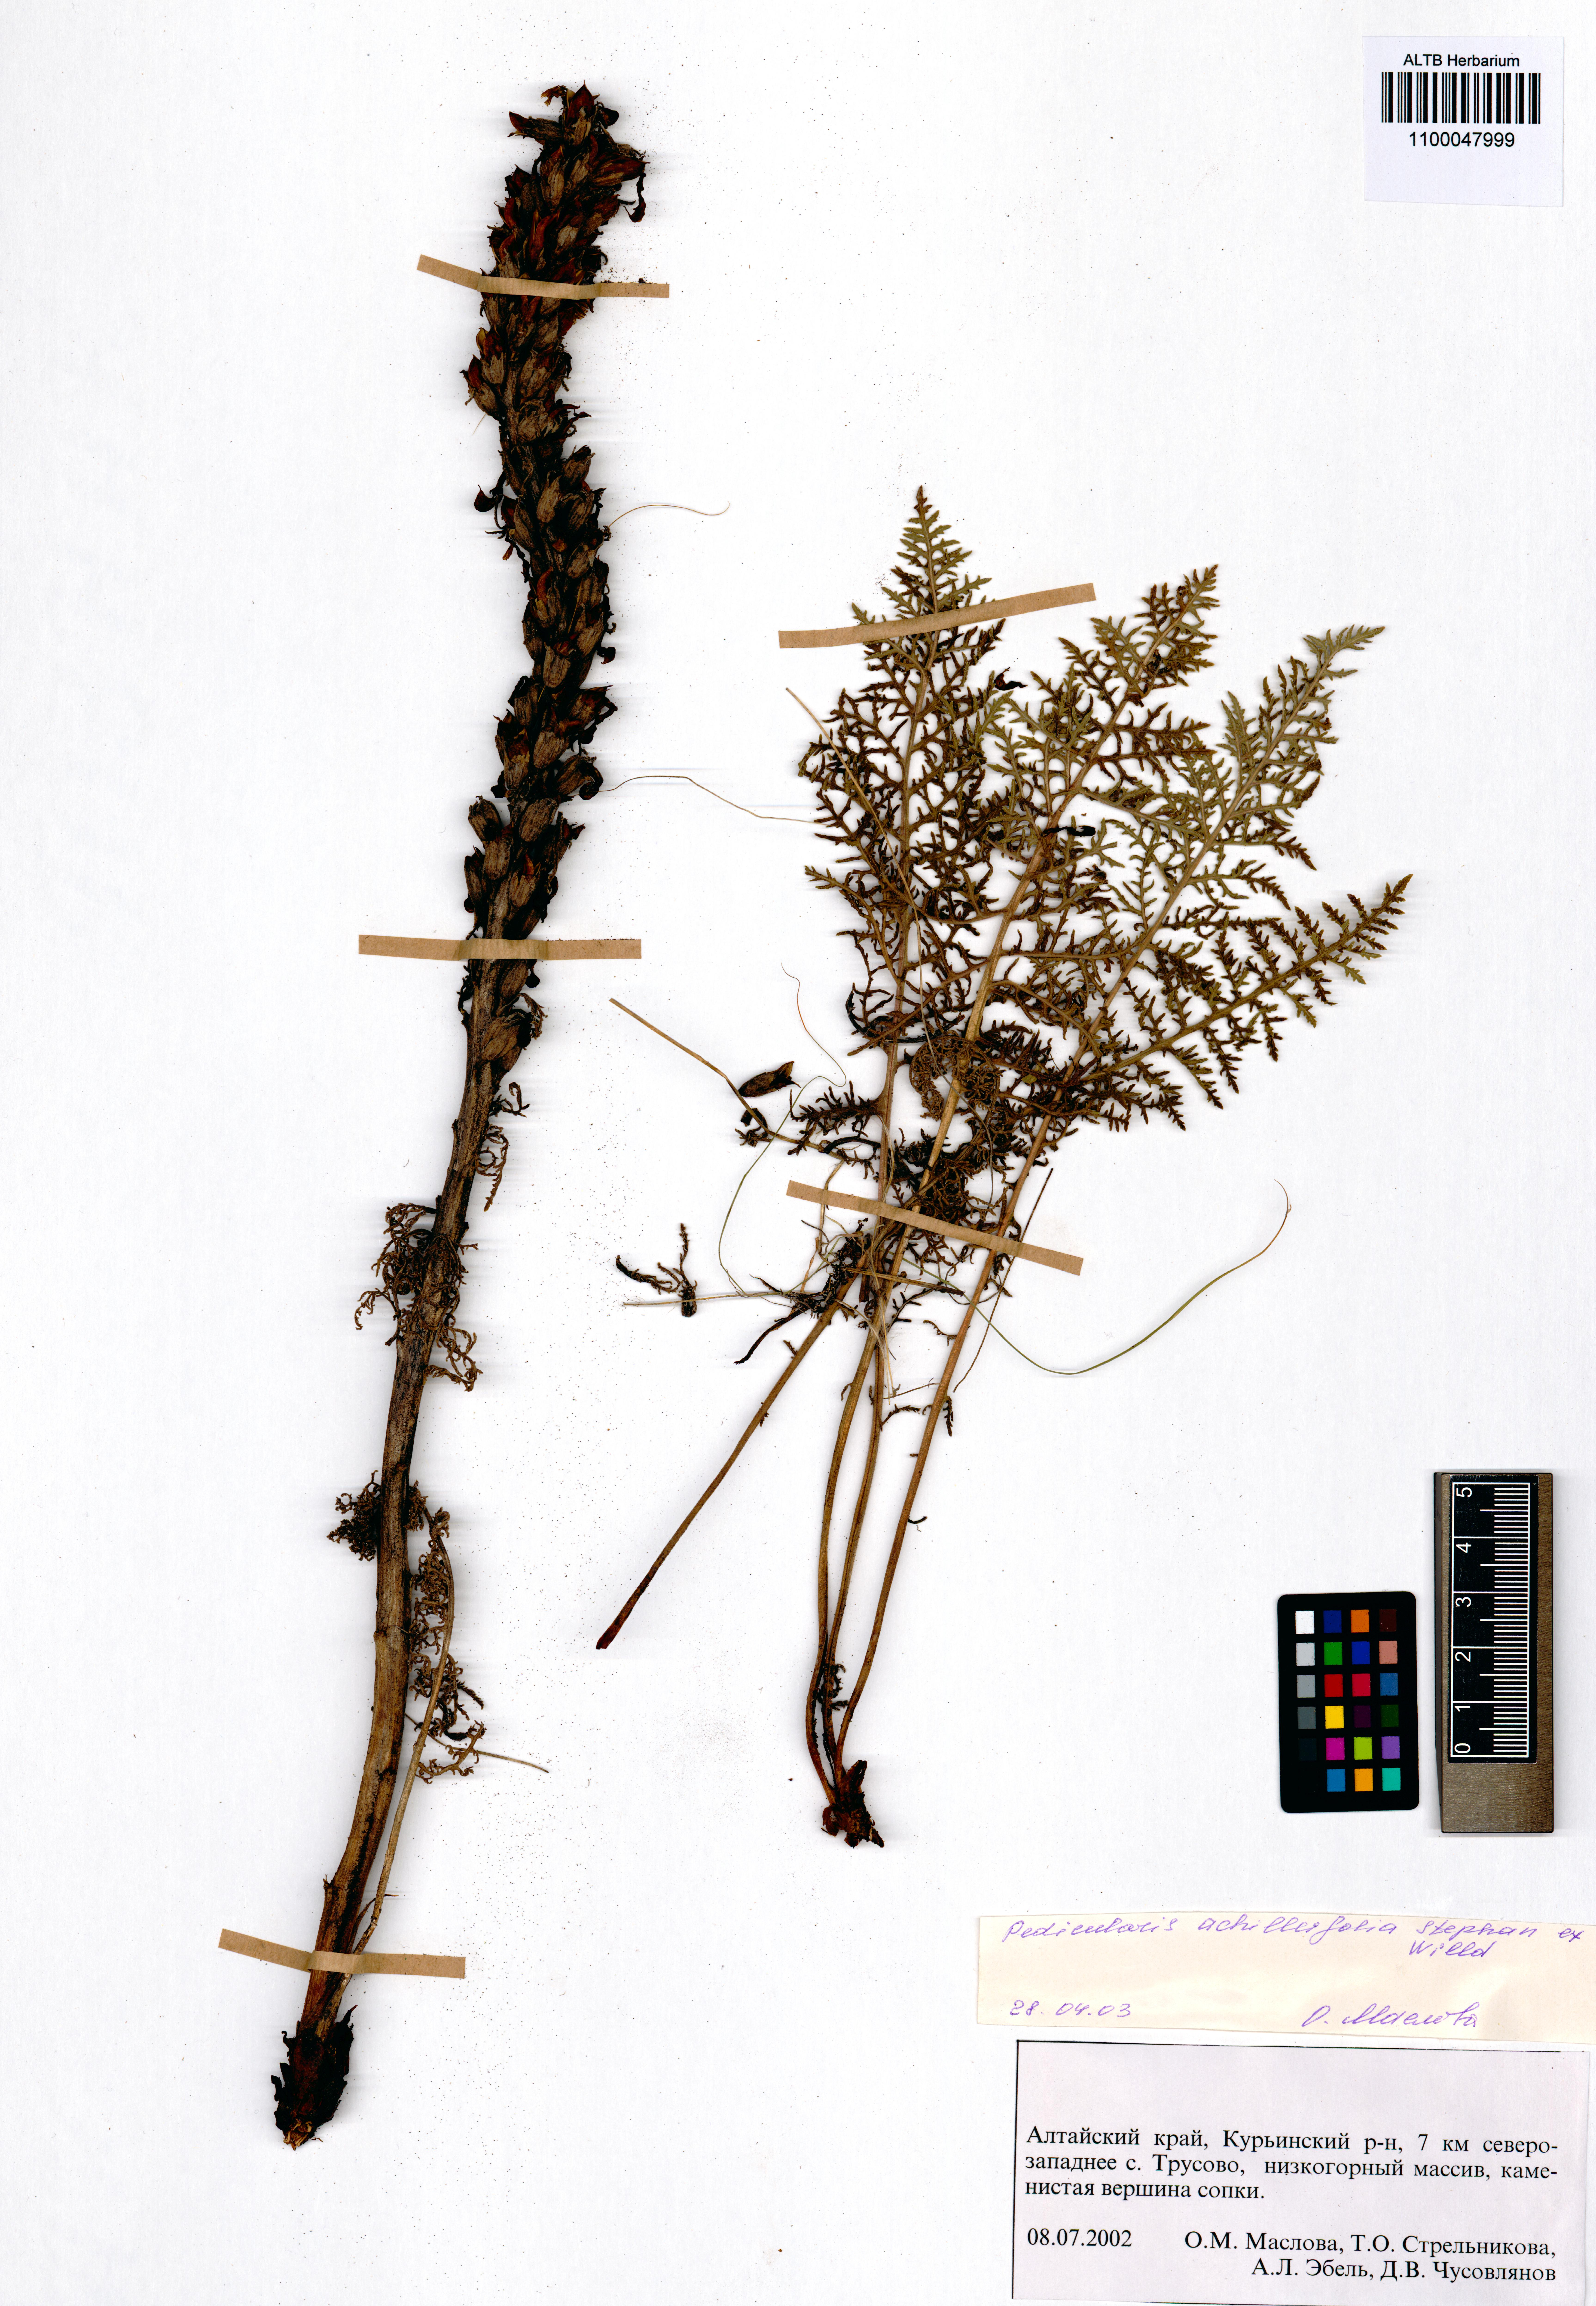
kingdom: Plantae
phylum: Tracheophyta
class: Magnoliopsida
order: Lamiales
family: Orobanchaceae
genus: Pedicularis
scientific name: Pedicularis achilleifolia
